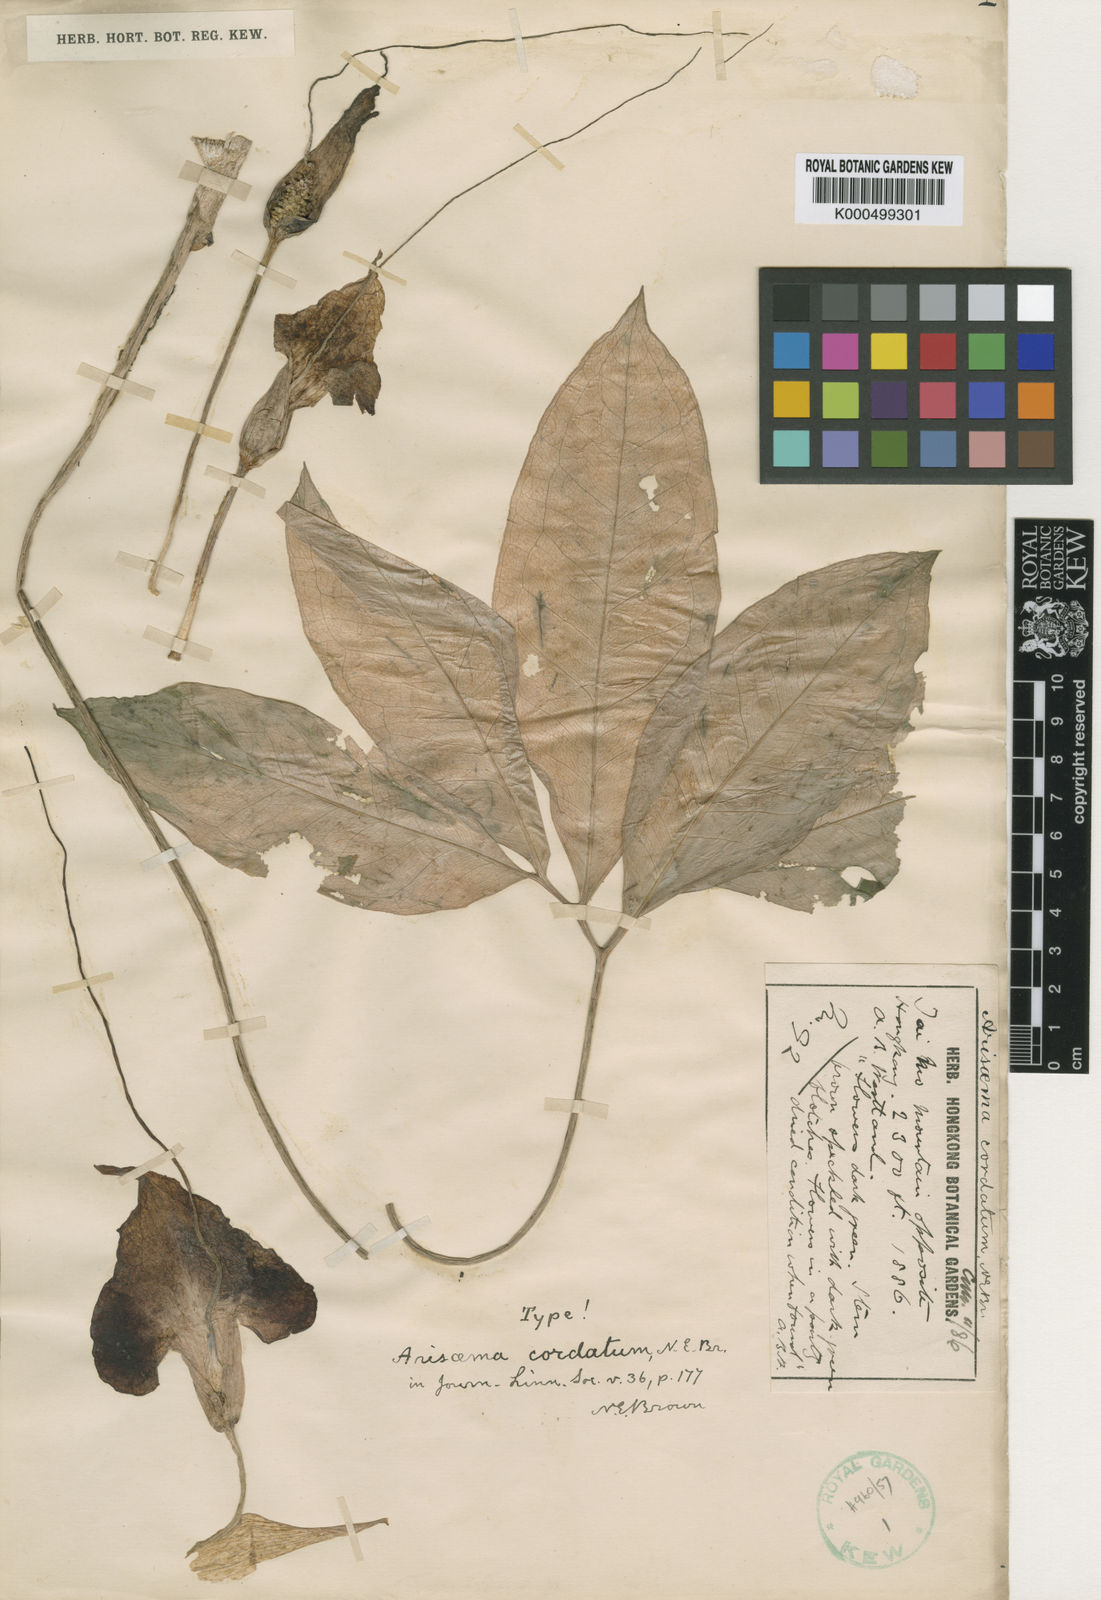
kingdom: Plantae
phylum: Tracheophyta
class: Liliopsida
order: Alismatales
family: Araceae
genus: Arisaema
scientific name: Arisaema cordatum
